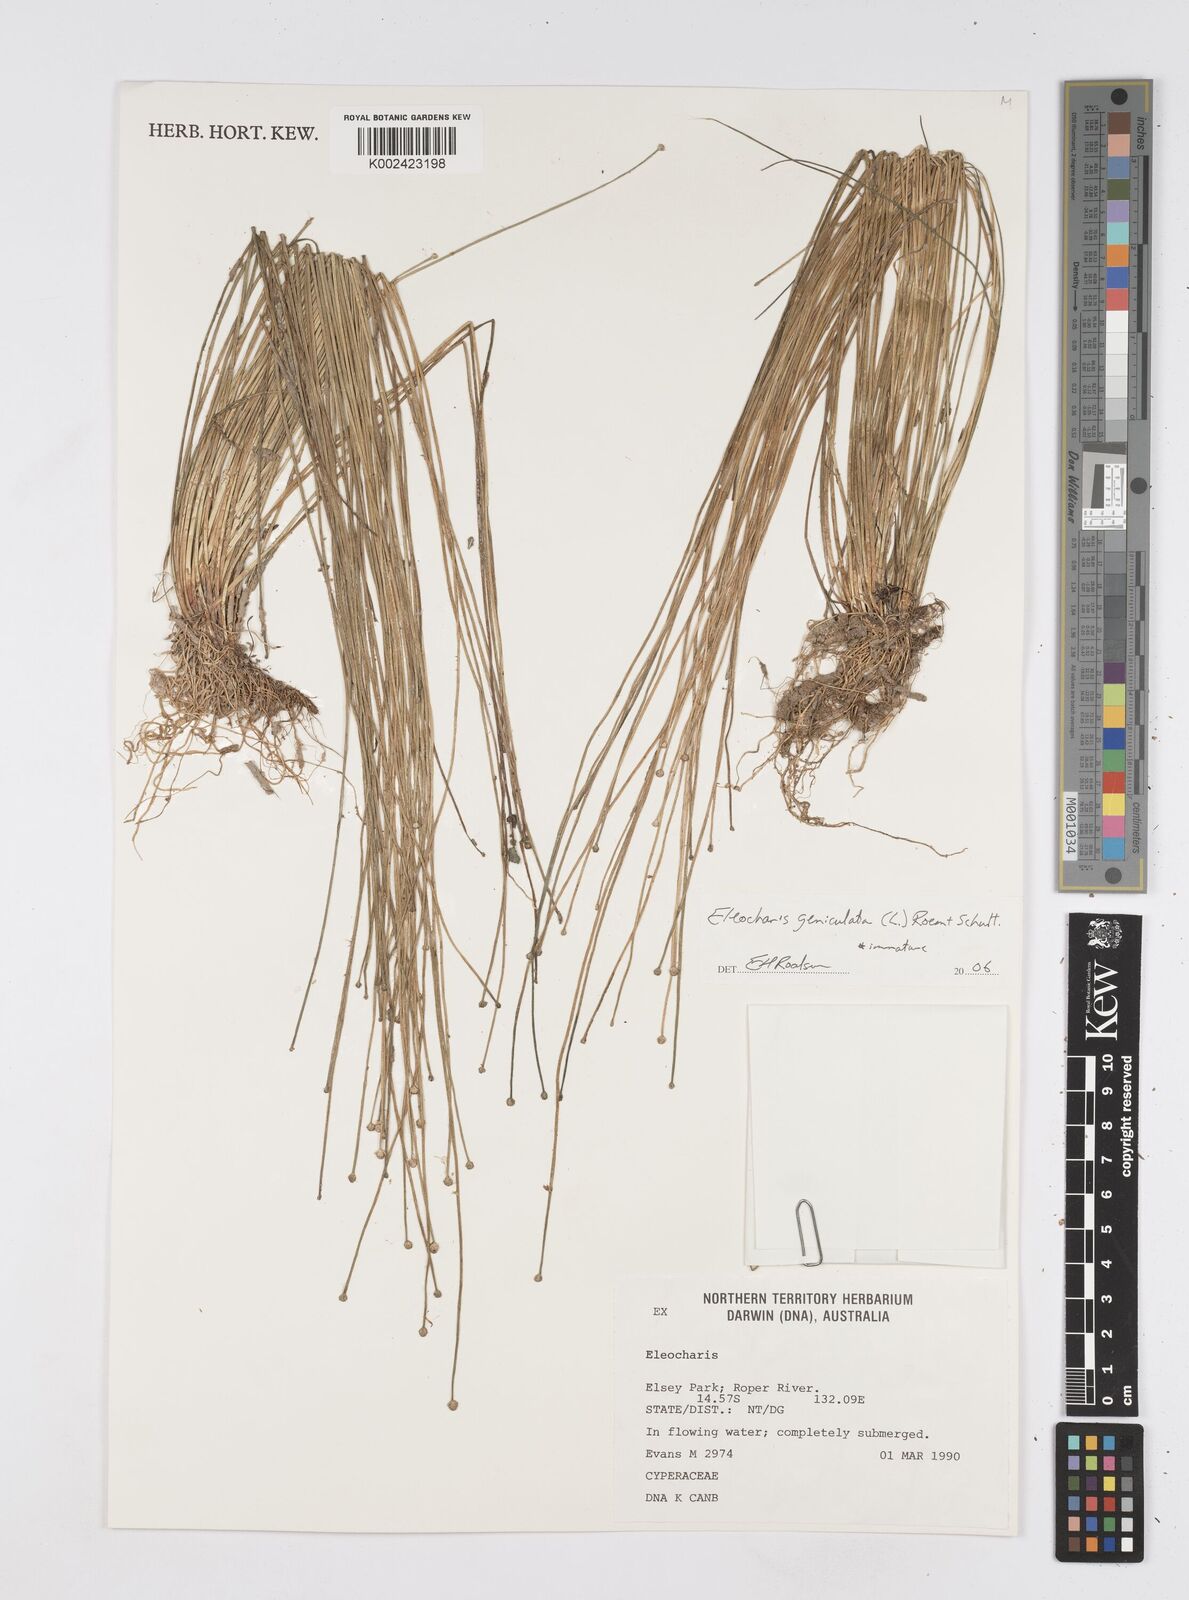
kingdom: Plantae
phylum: Tracheophyta
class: Liliopsida
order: Poales
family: Cyperaceae
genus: Eleocharis
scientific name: Eleocharis geniculata
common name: Canada spikesedge
